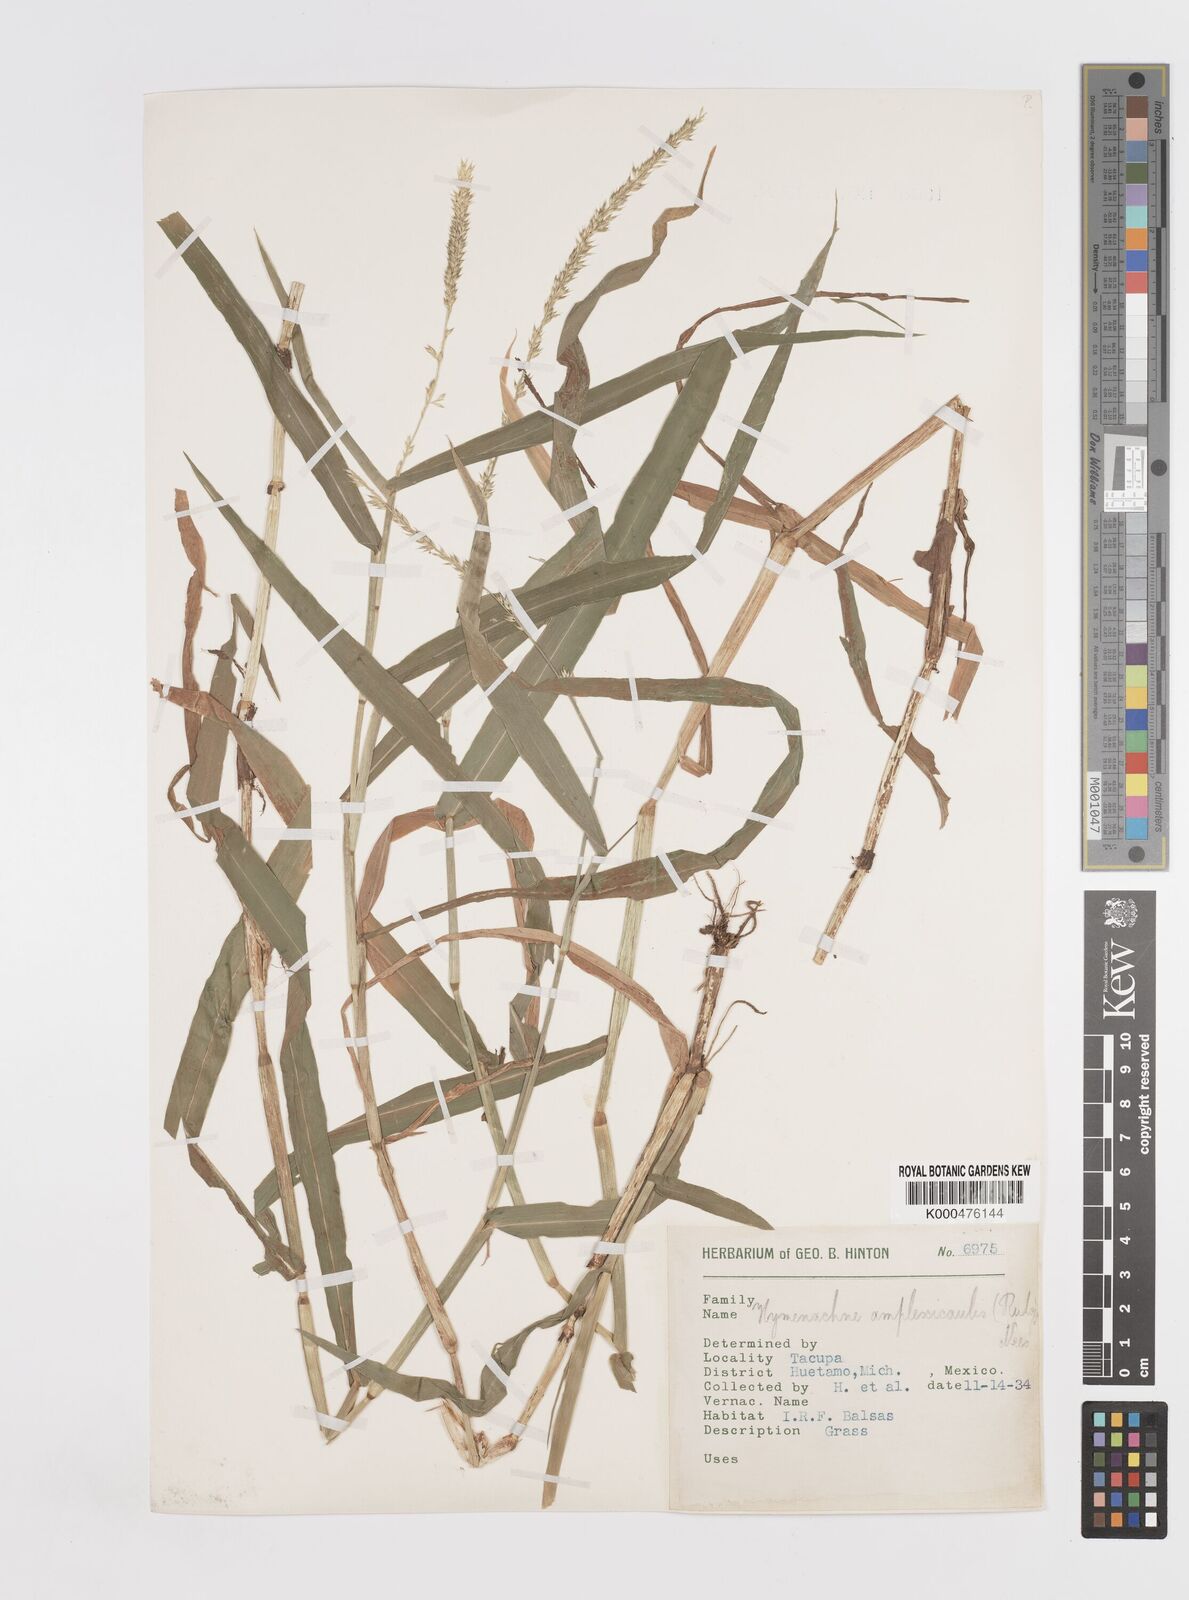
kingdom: Plantae
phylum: Tracheophyta
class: Liliopsida
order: Poales
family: Poaceae
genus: Hymenachne
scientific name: Hymenachne amplexicaulis
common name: Olive hymenachne
